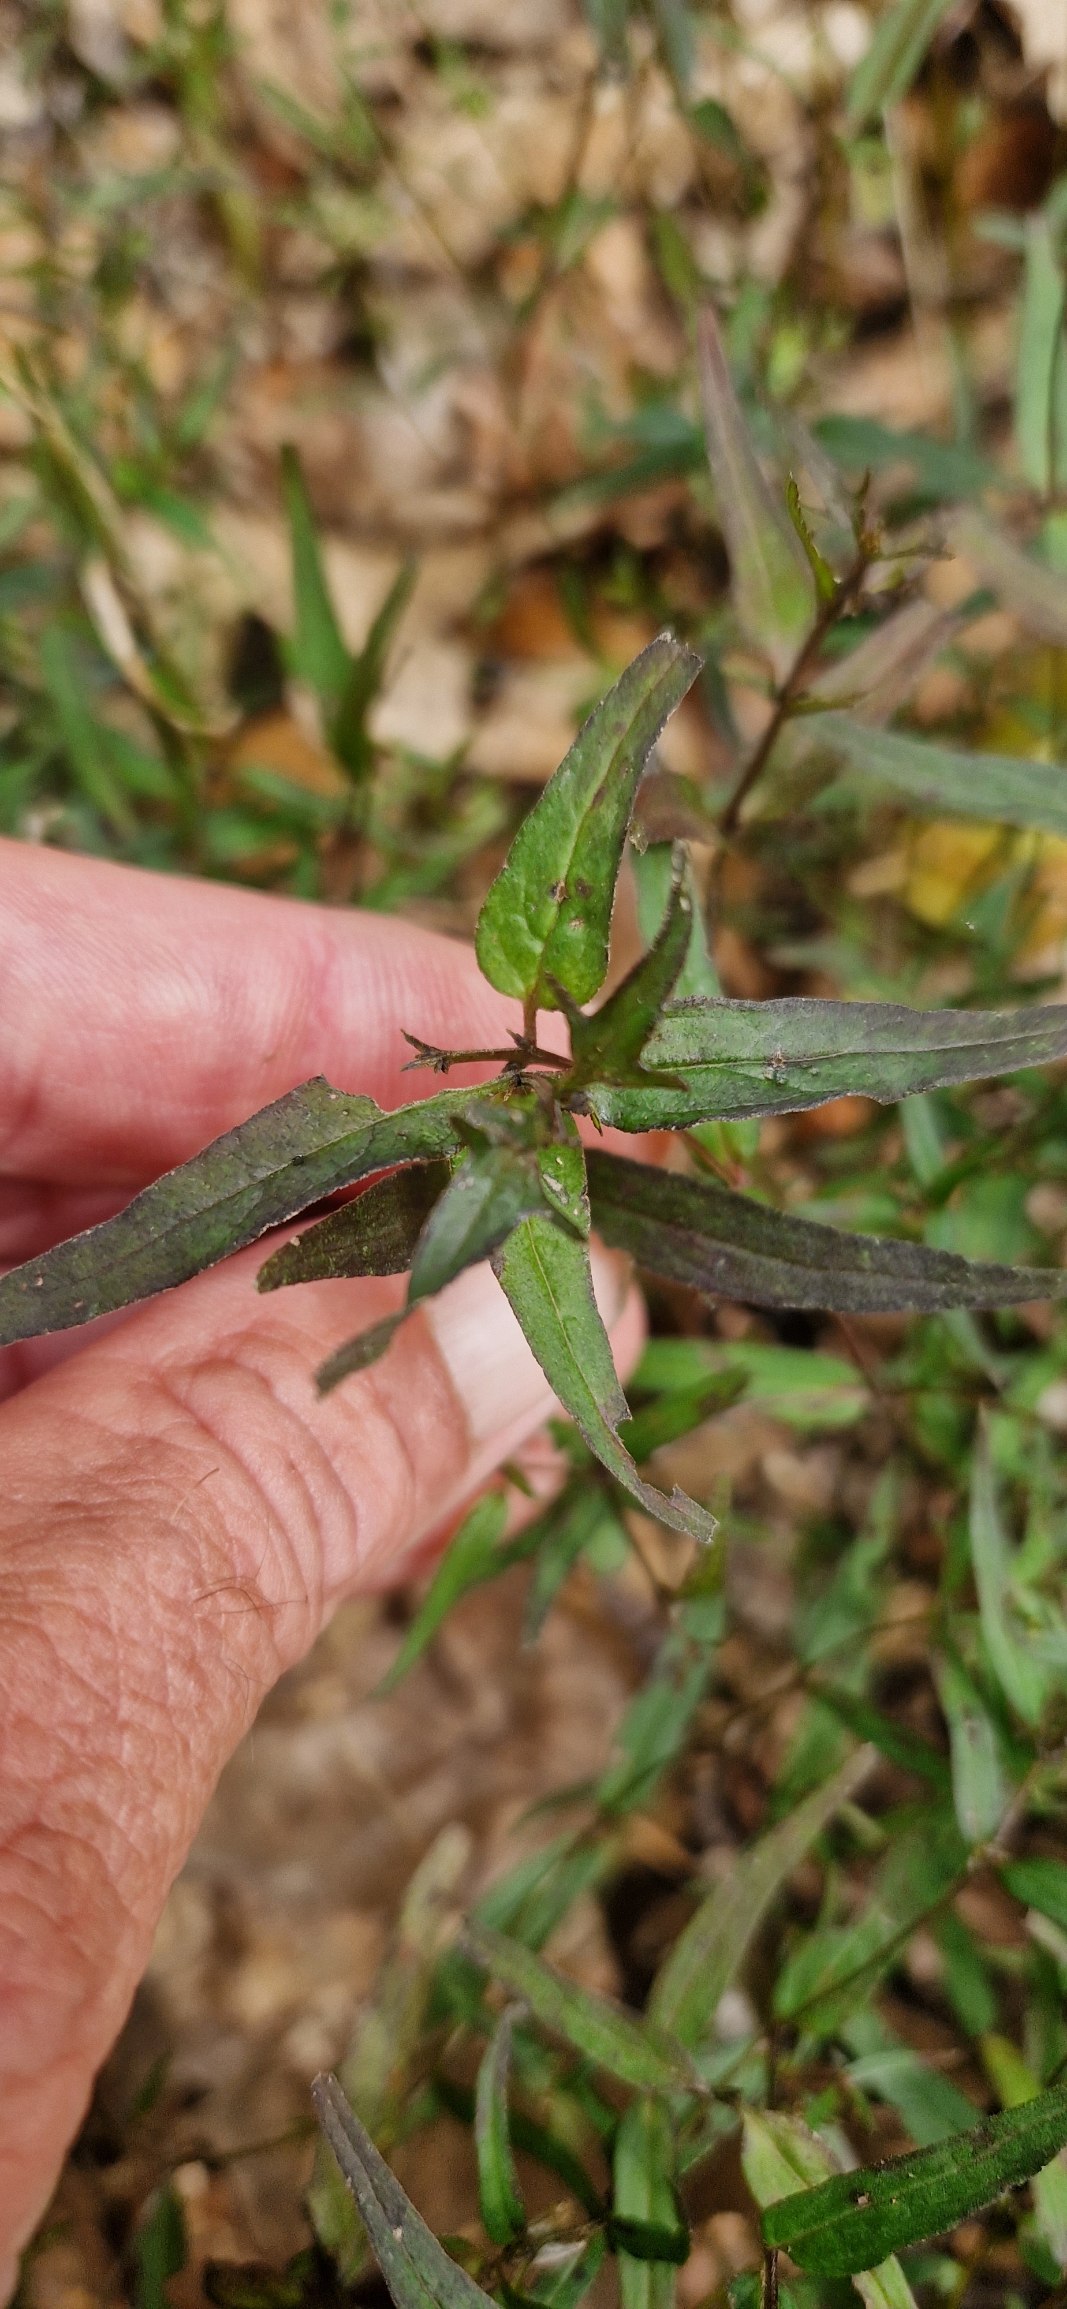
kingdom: Plantae
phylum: Tracheophyta
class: Magnoliopsida
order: Lamiales
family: Orobanchaceae
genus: Melampyrum
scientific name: Melampyrum pratense
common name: Almindelig kohvede
